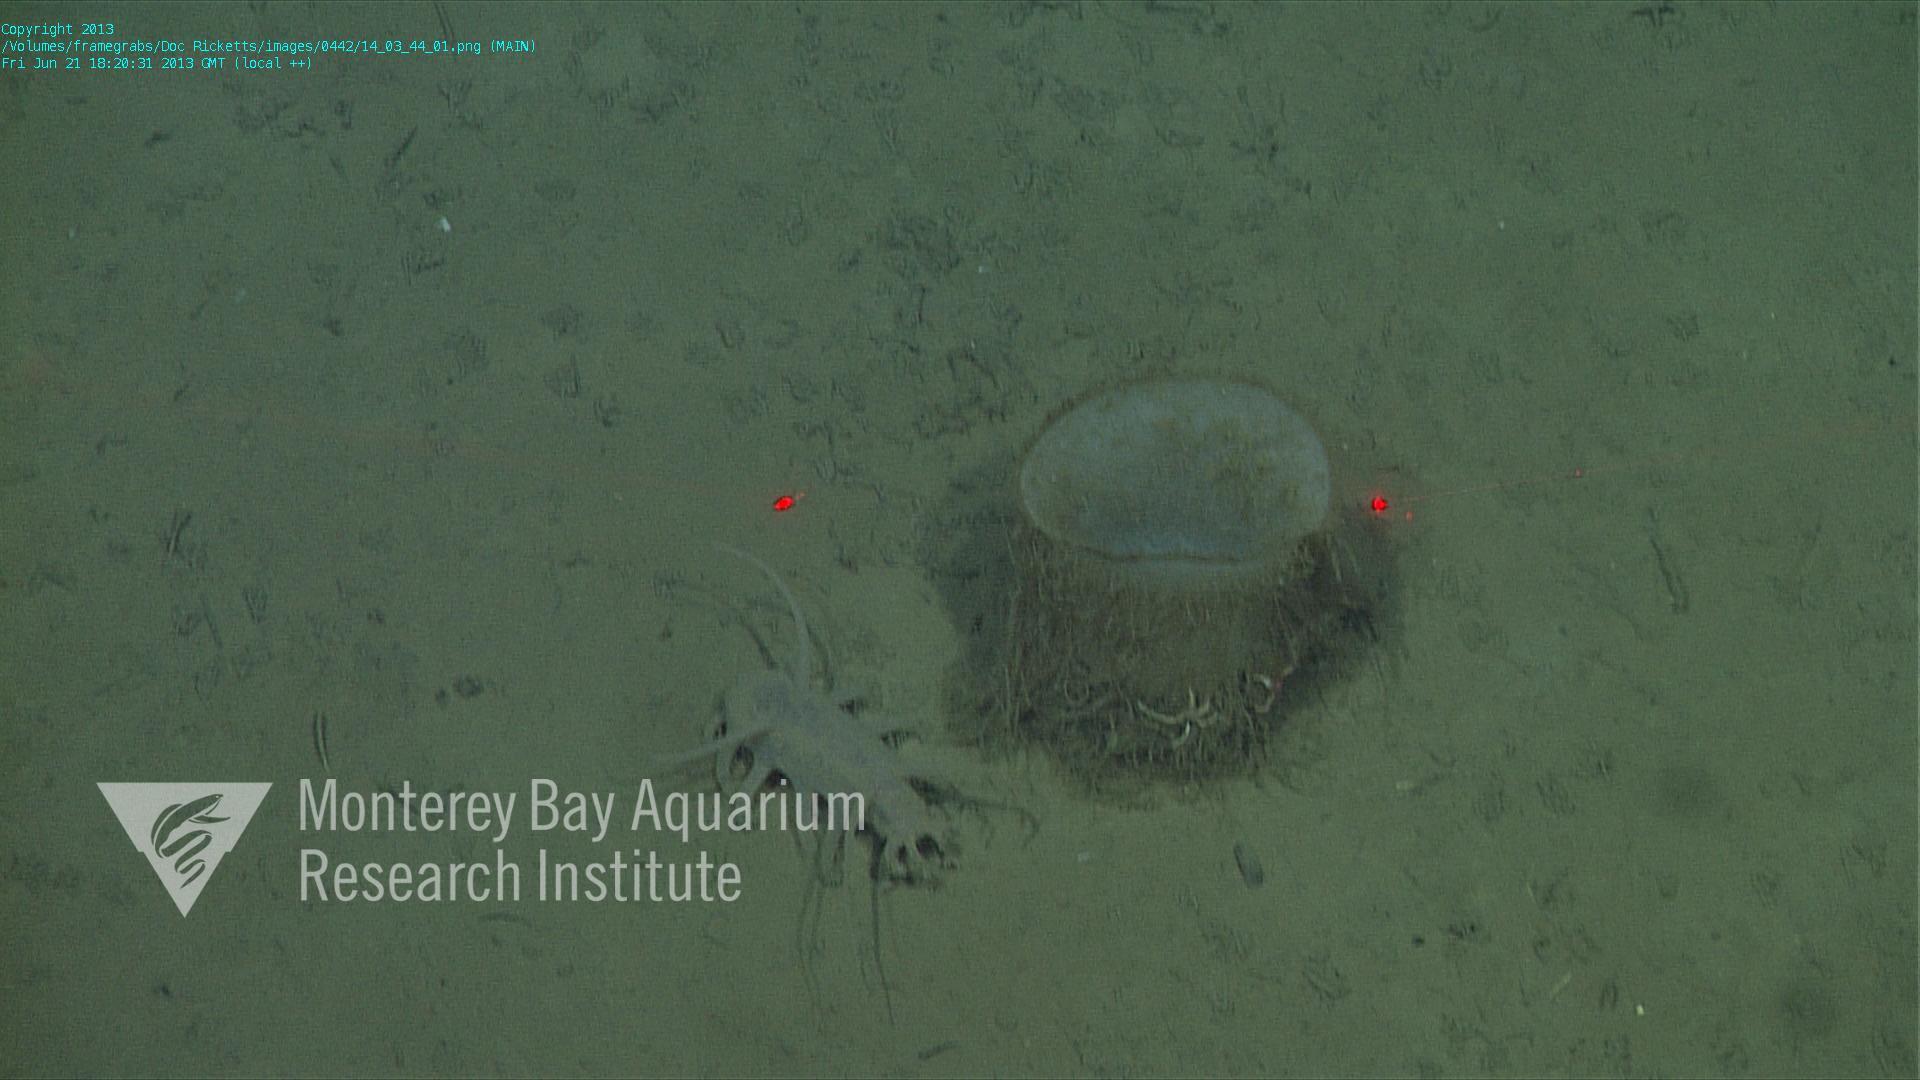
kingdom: Animalia
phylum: Porifera
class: Hexactinellida
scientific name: Hexactinellida
